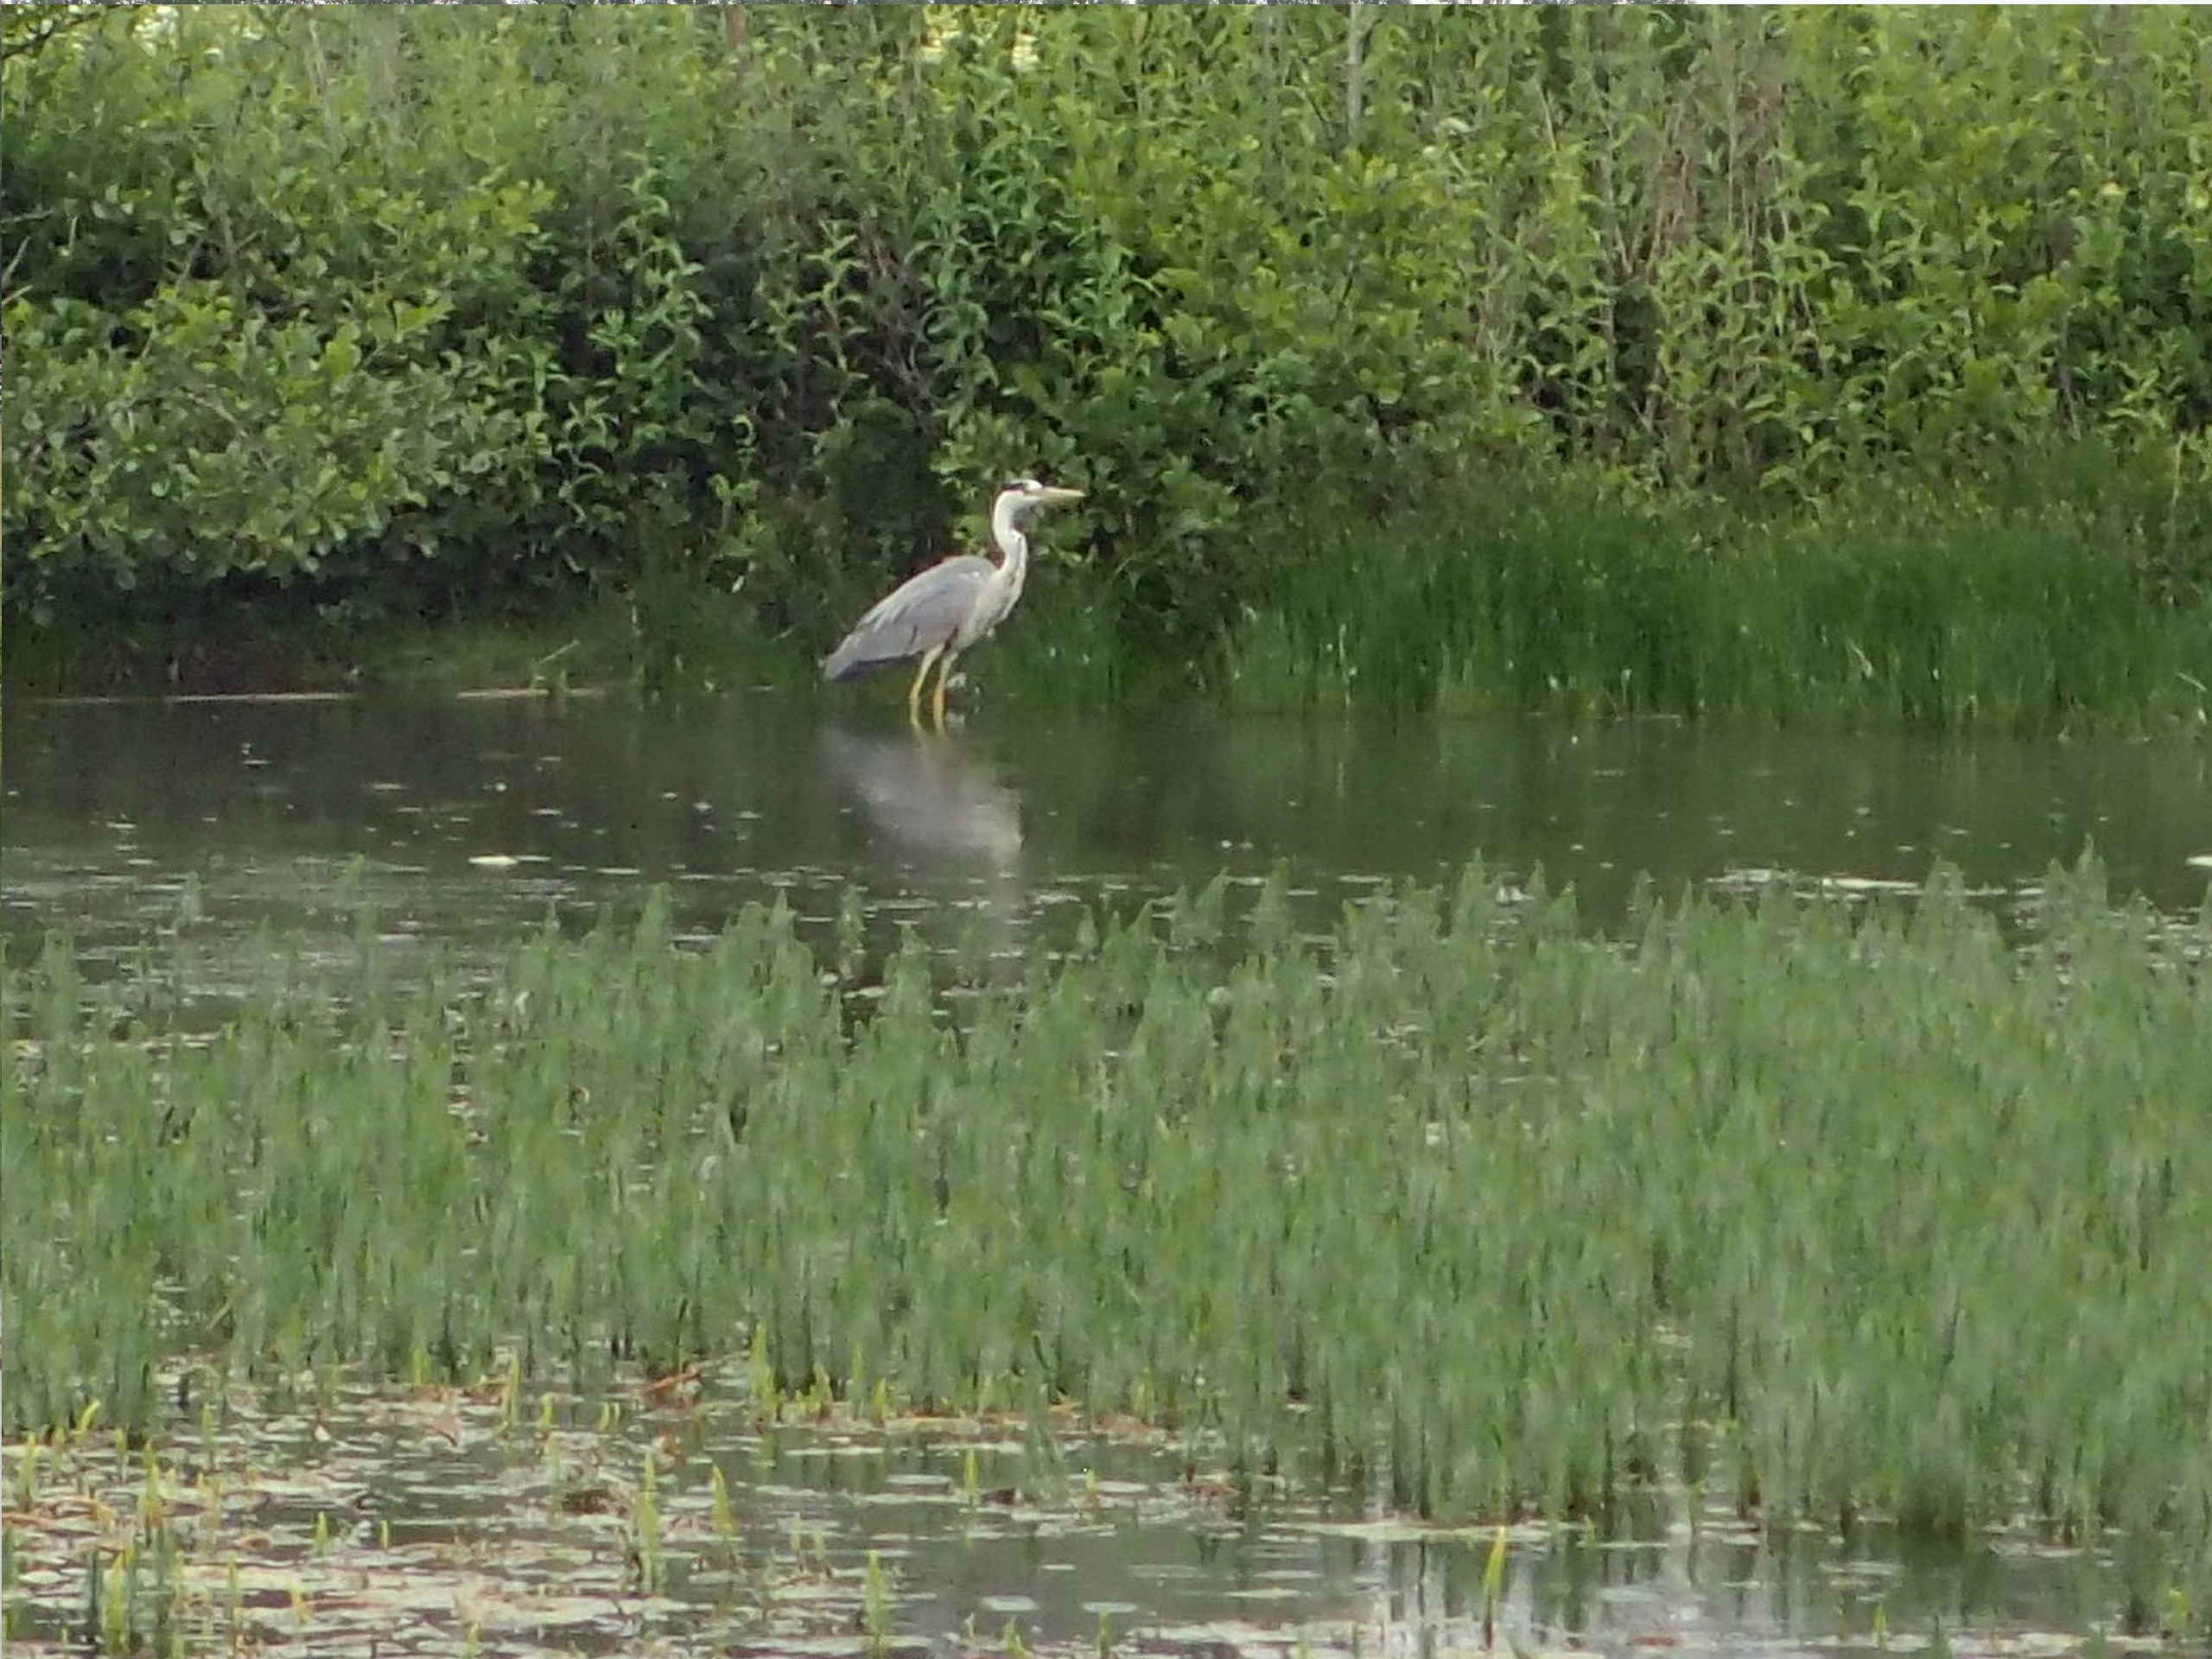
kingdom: Animalia
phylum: Chordata
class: Aves
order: Pelecaniformes
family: Ardeidae
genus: Ardea
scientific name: Ardea cinerea
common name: Fiskehejre
